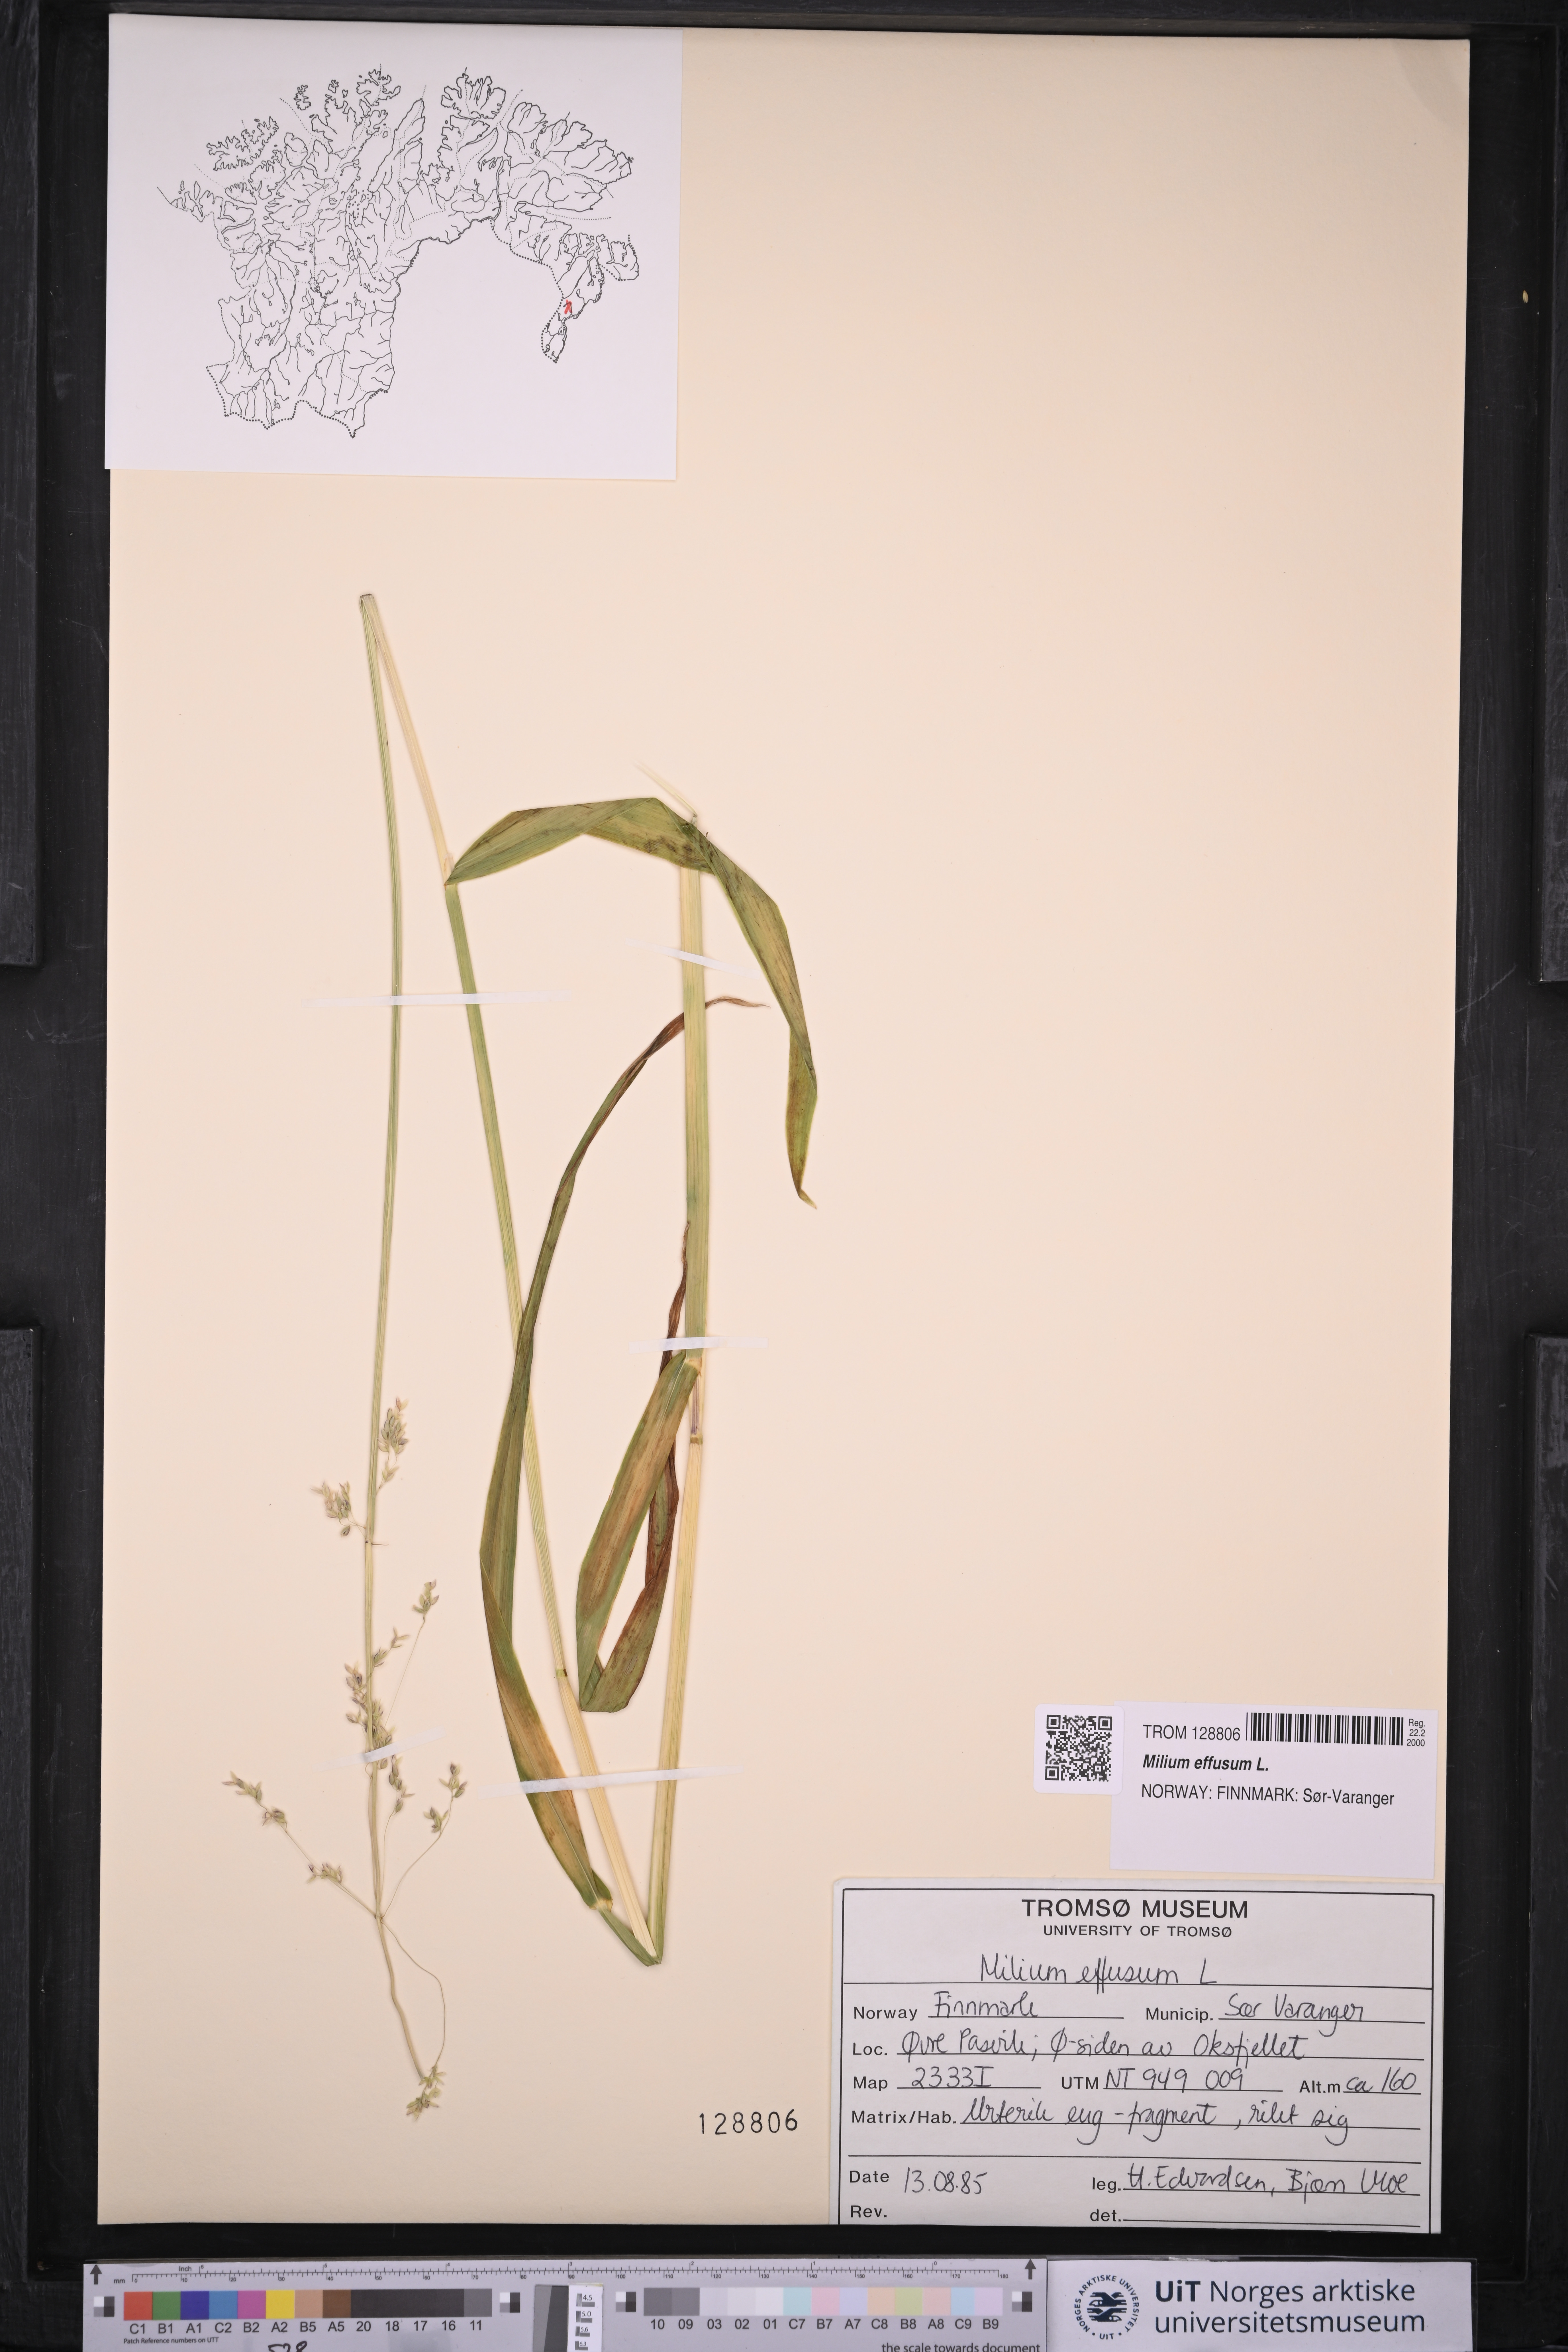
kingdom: Plantae
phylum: Tracheophyta
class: Liliopsida
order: Poales
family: Poaceae
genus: Milium
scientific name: Milium effusum
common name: Wood millet
